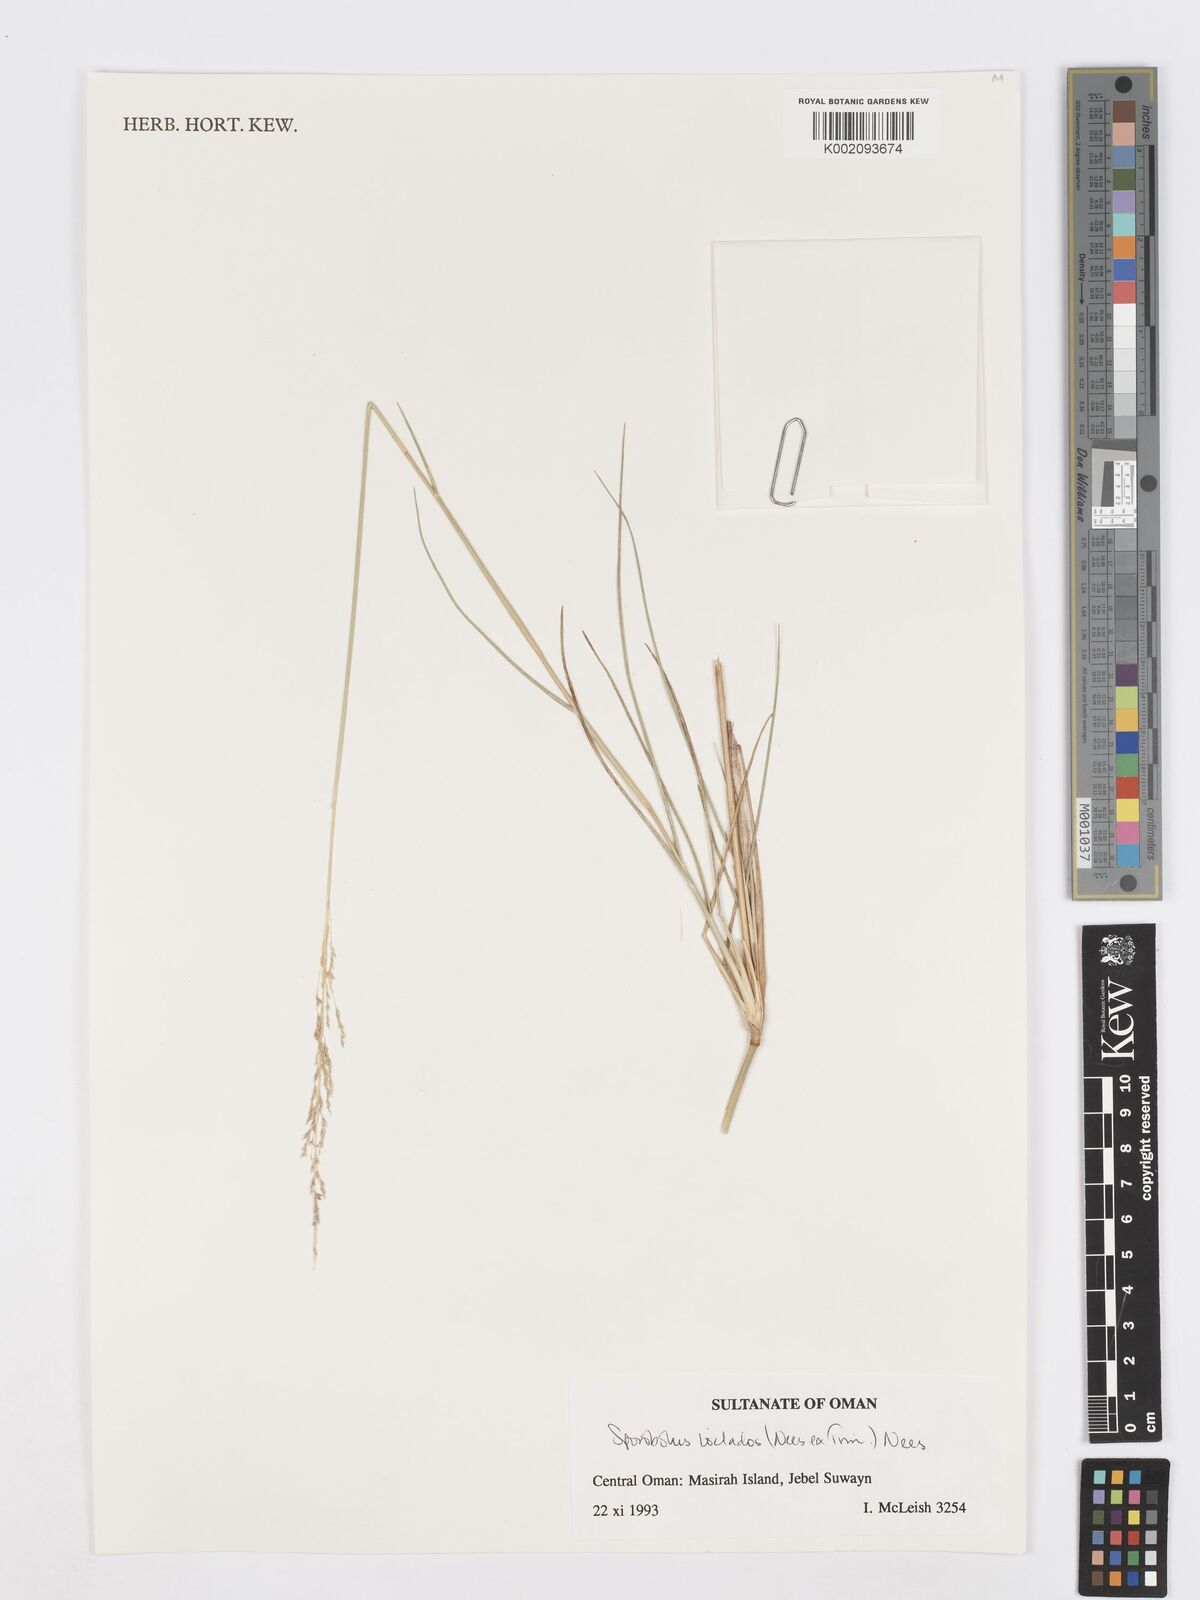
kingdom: Plantae
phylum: Tracheophyta
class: Liliopsida
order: Poales
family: Poaceae
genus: Sporobolus
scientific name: Sporobolus ioclados
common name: Pan dropseed
